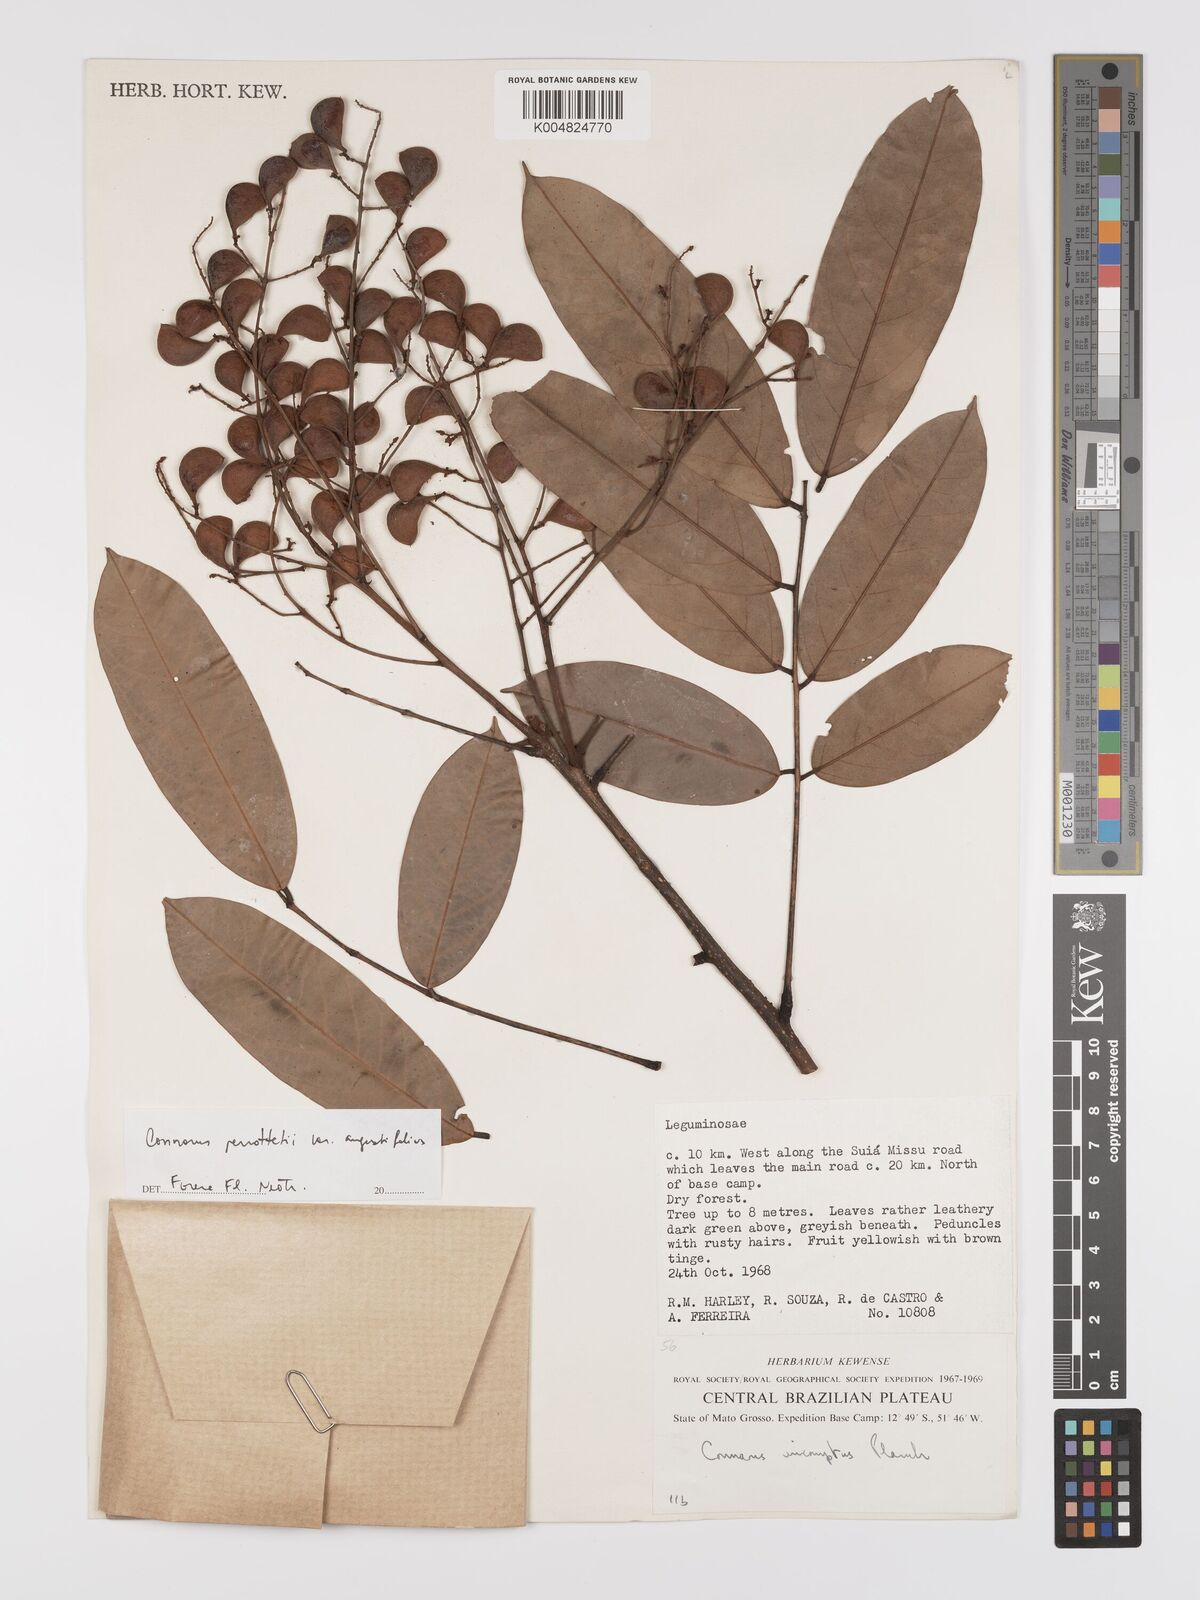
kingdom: Plantae
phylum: Tracheophyta
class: Magnoliopsida
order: Oxalidales
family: Connaraceae
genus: Connarus
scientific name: Connarus perrottetii
